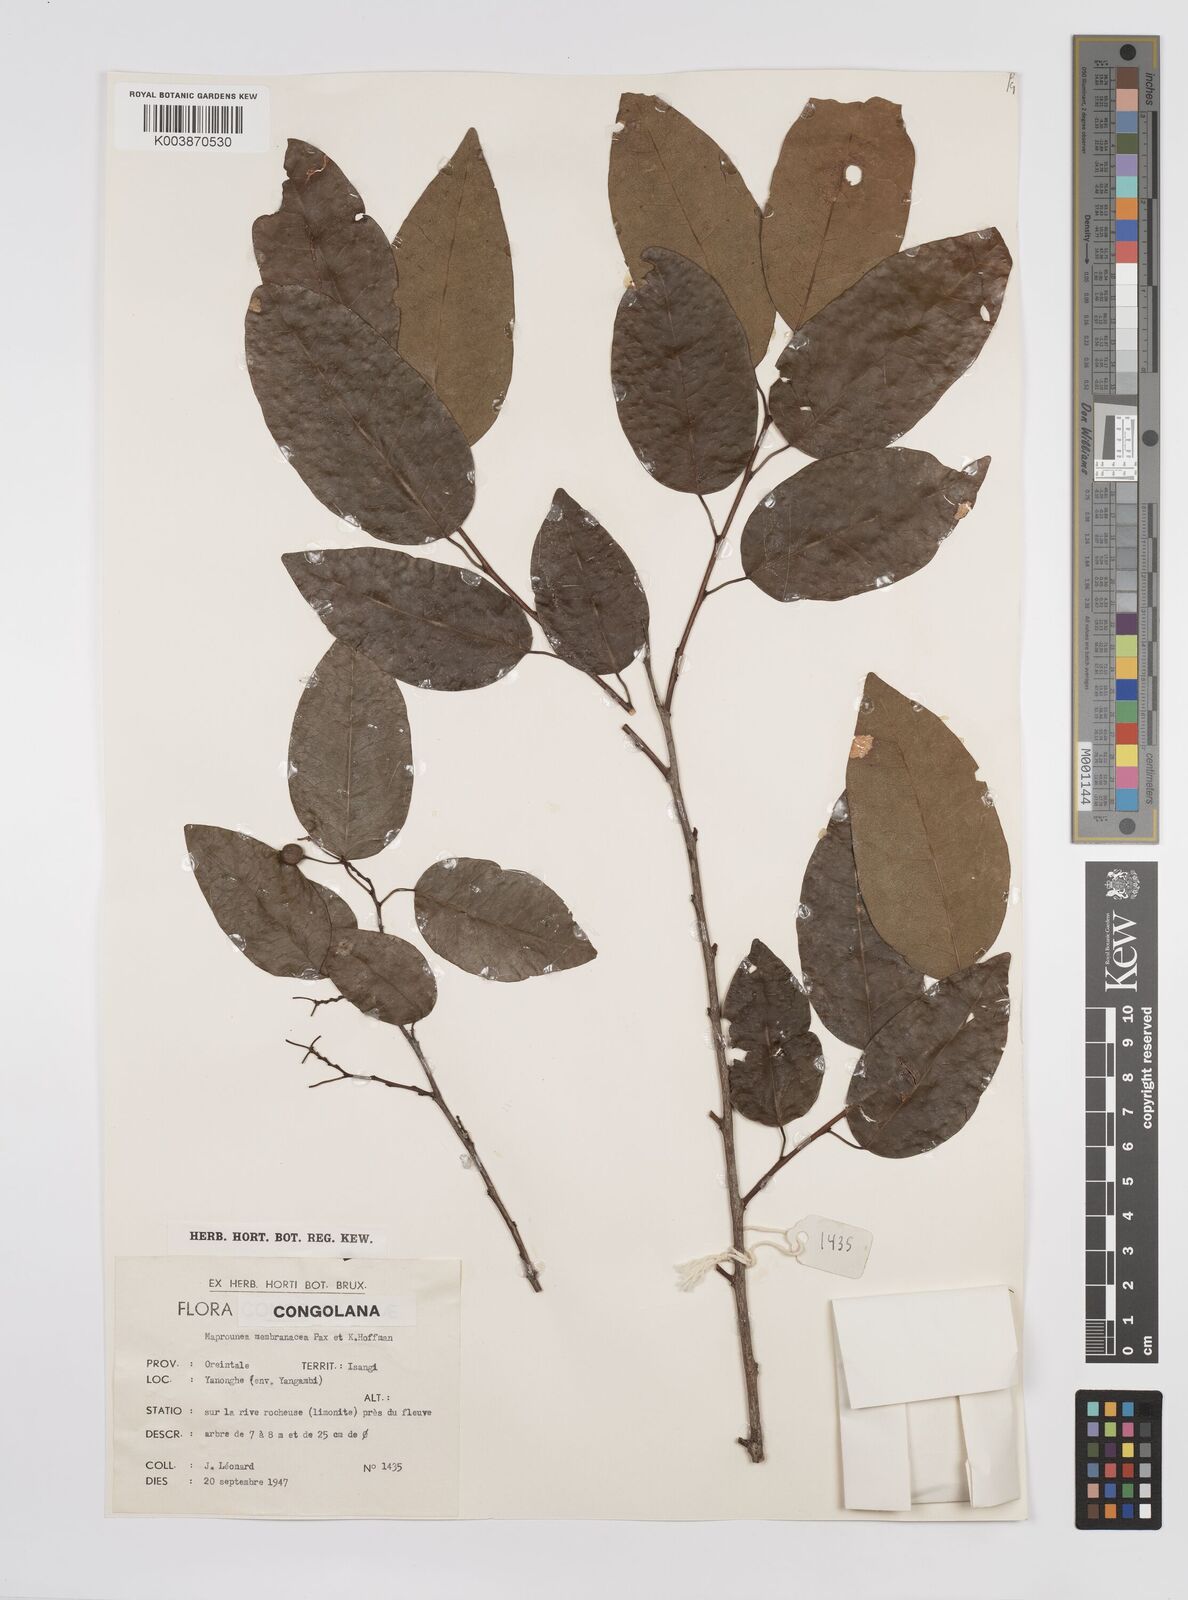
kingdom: Plantae
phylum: Tracheophyta
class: Magnoliopsida
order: Malpighiales
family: Euphorbiaceae
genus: Maprounea
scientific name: Maprounea membranacea
